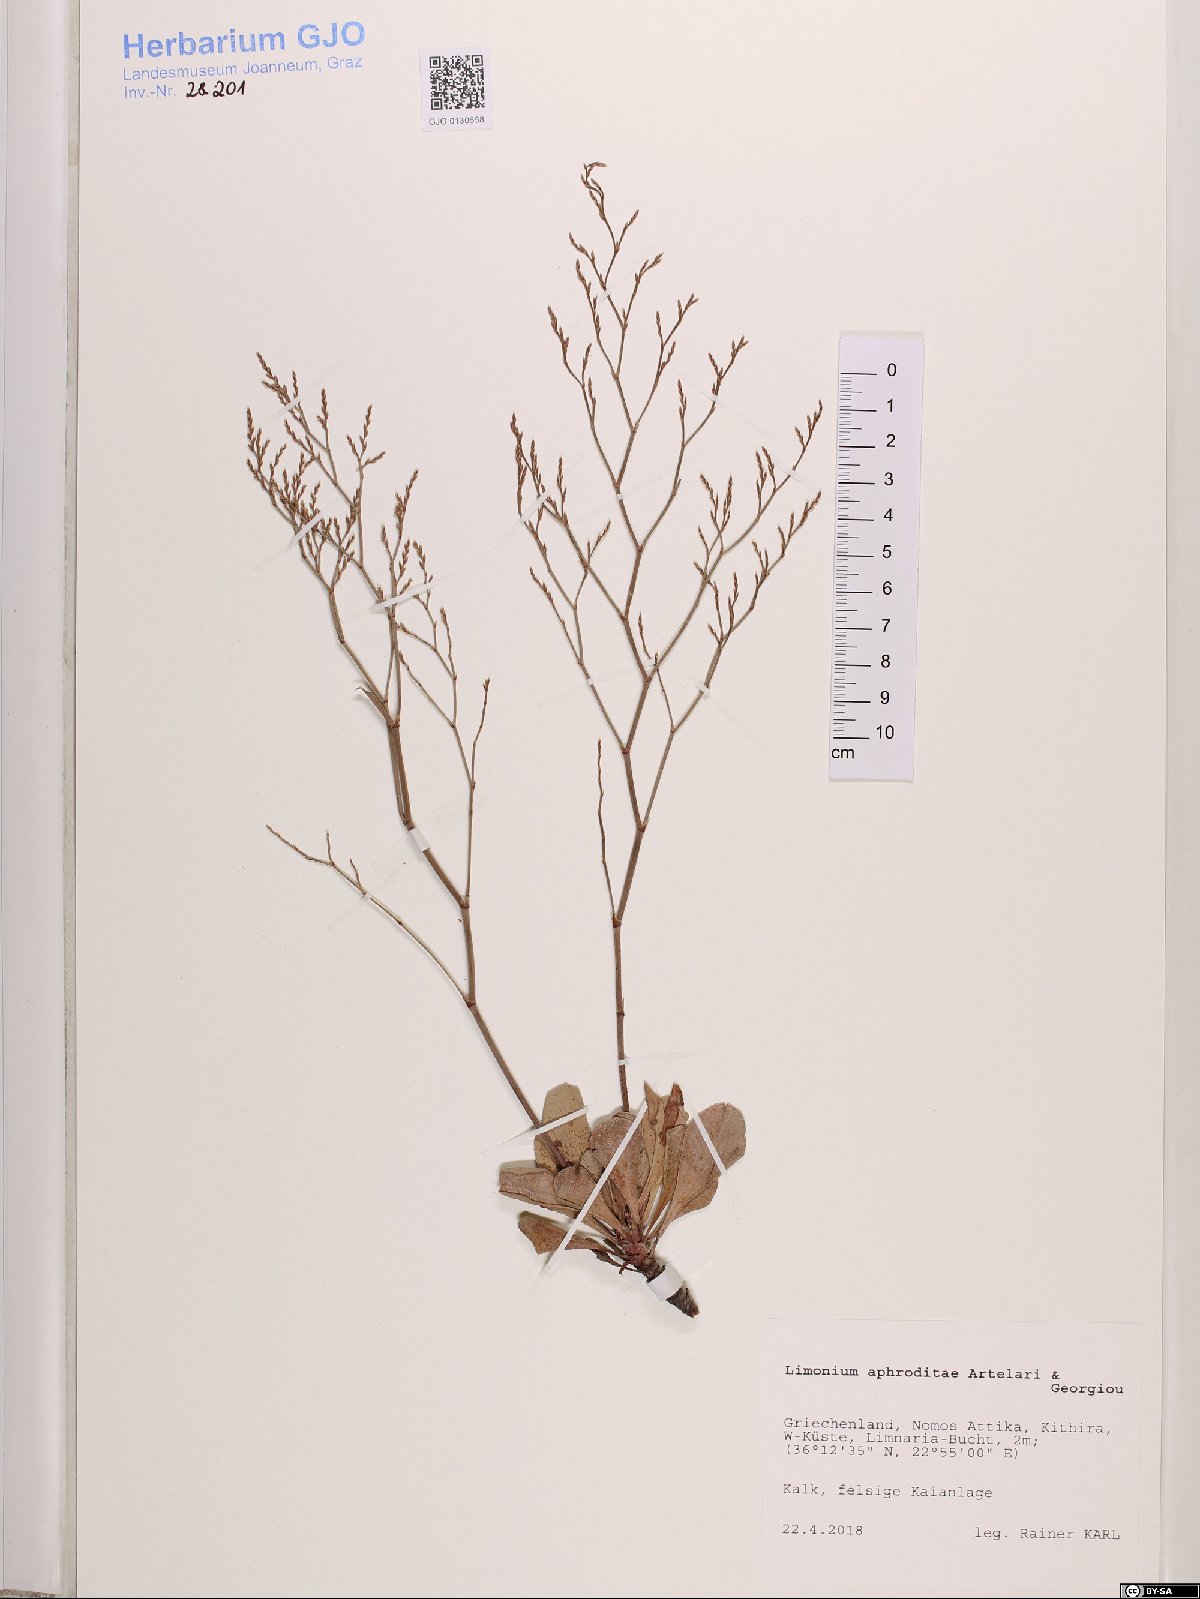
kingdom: Plantae
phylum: Tracheophyta
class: Magnoliopsida
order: Caryophyllales
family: Plumbaginaceae
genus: Limonium
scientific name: Limonium aphroditae
